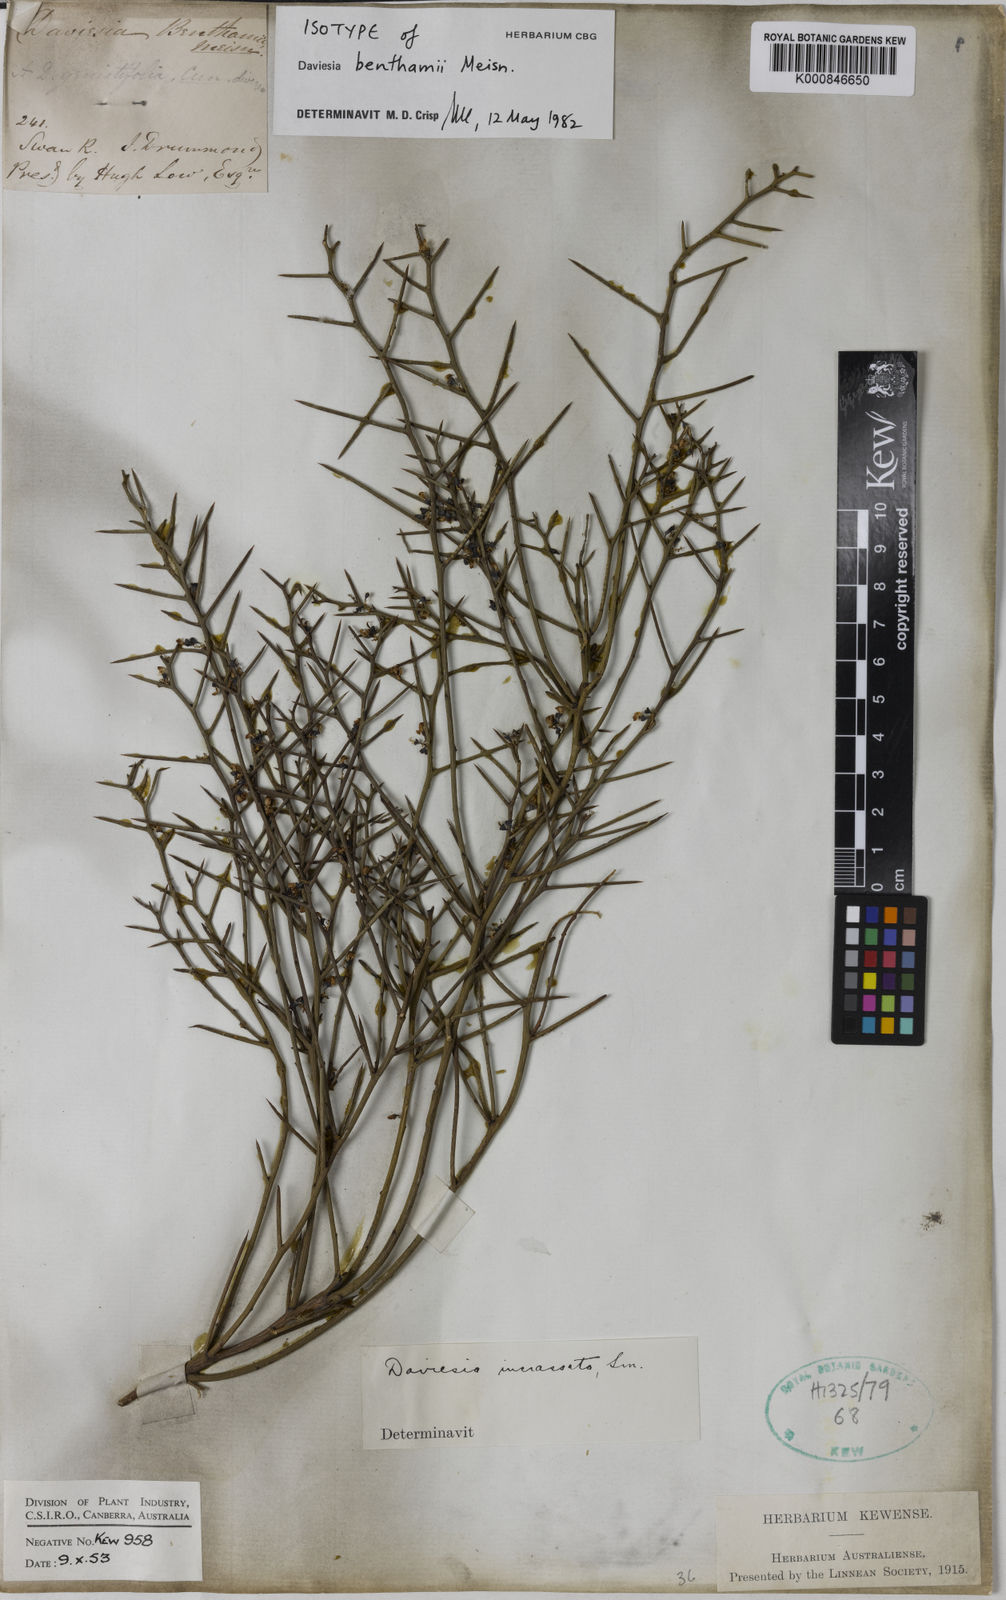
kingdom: Plantae
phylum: Tracheophyta
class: Magnoliopsida
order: Fabales
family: Fabaceae
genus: Daviesia
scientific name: Daviesia benthamii
